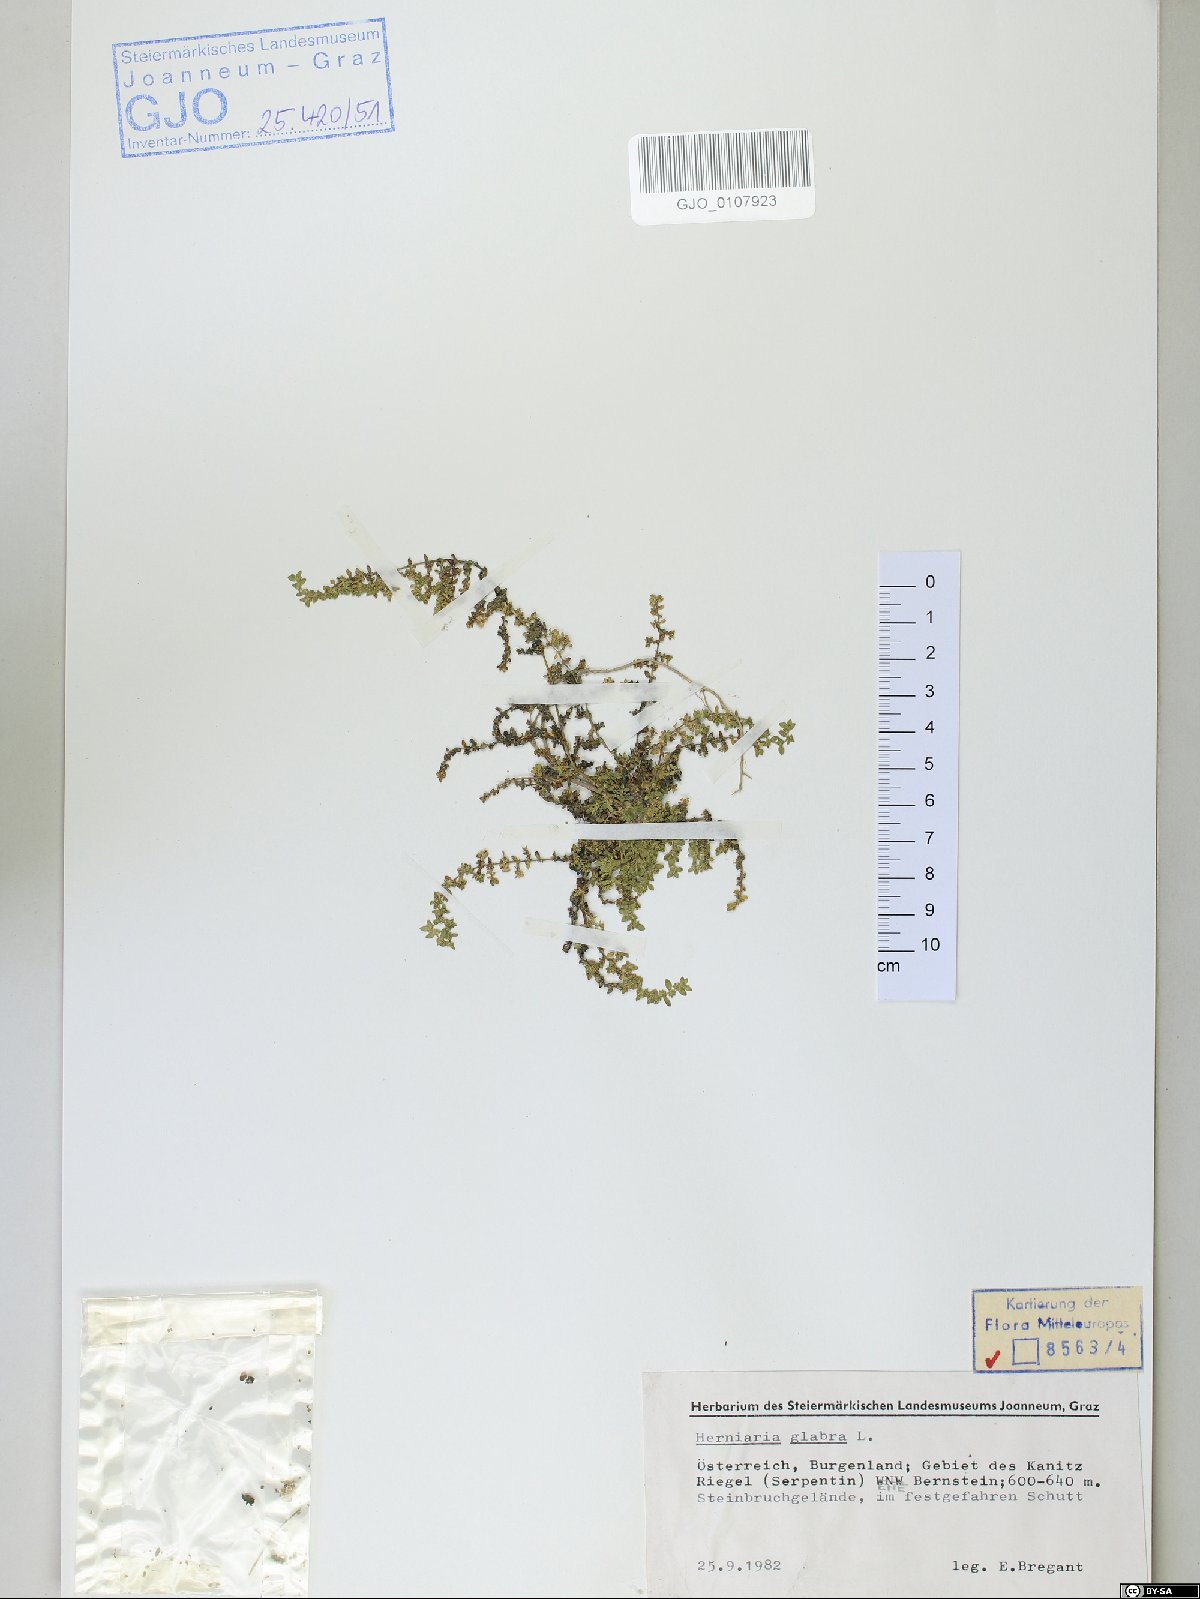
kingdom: Plantae
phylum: Tracheophyta
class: Magnoliopsida
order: Caryophyllales
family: Caryophyllaceae
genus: Herniaria
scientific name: Herniaria glabra
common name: Smooth rupturewort
